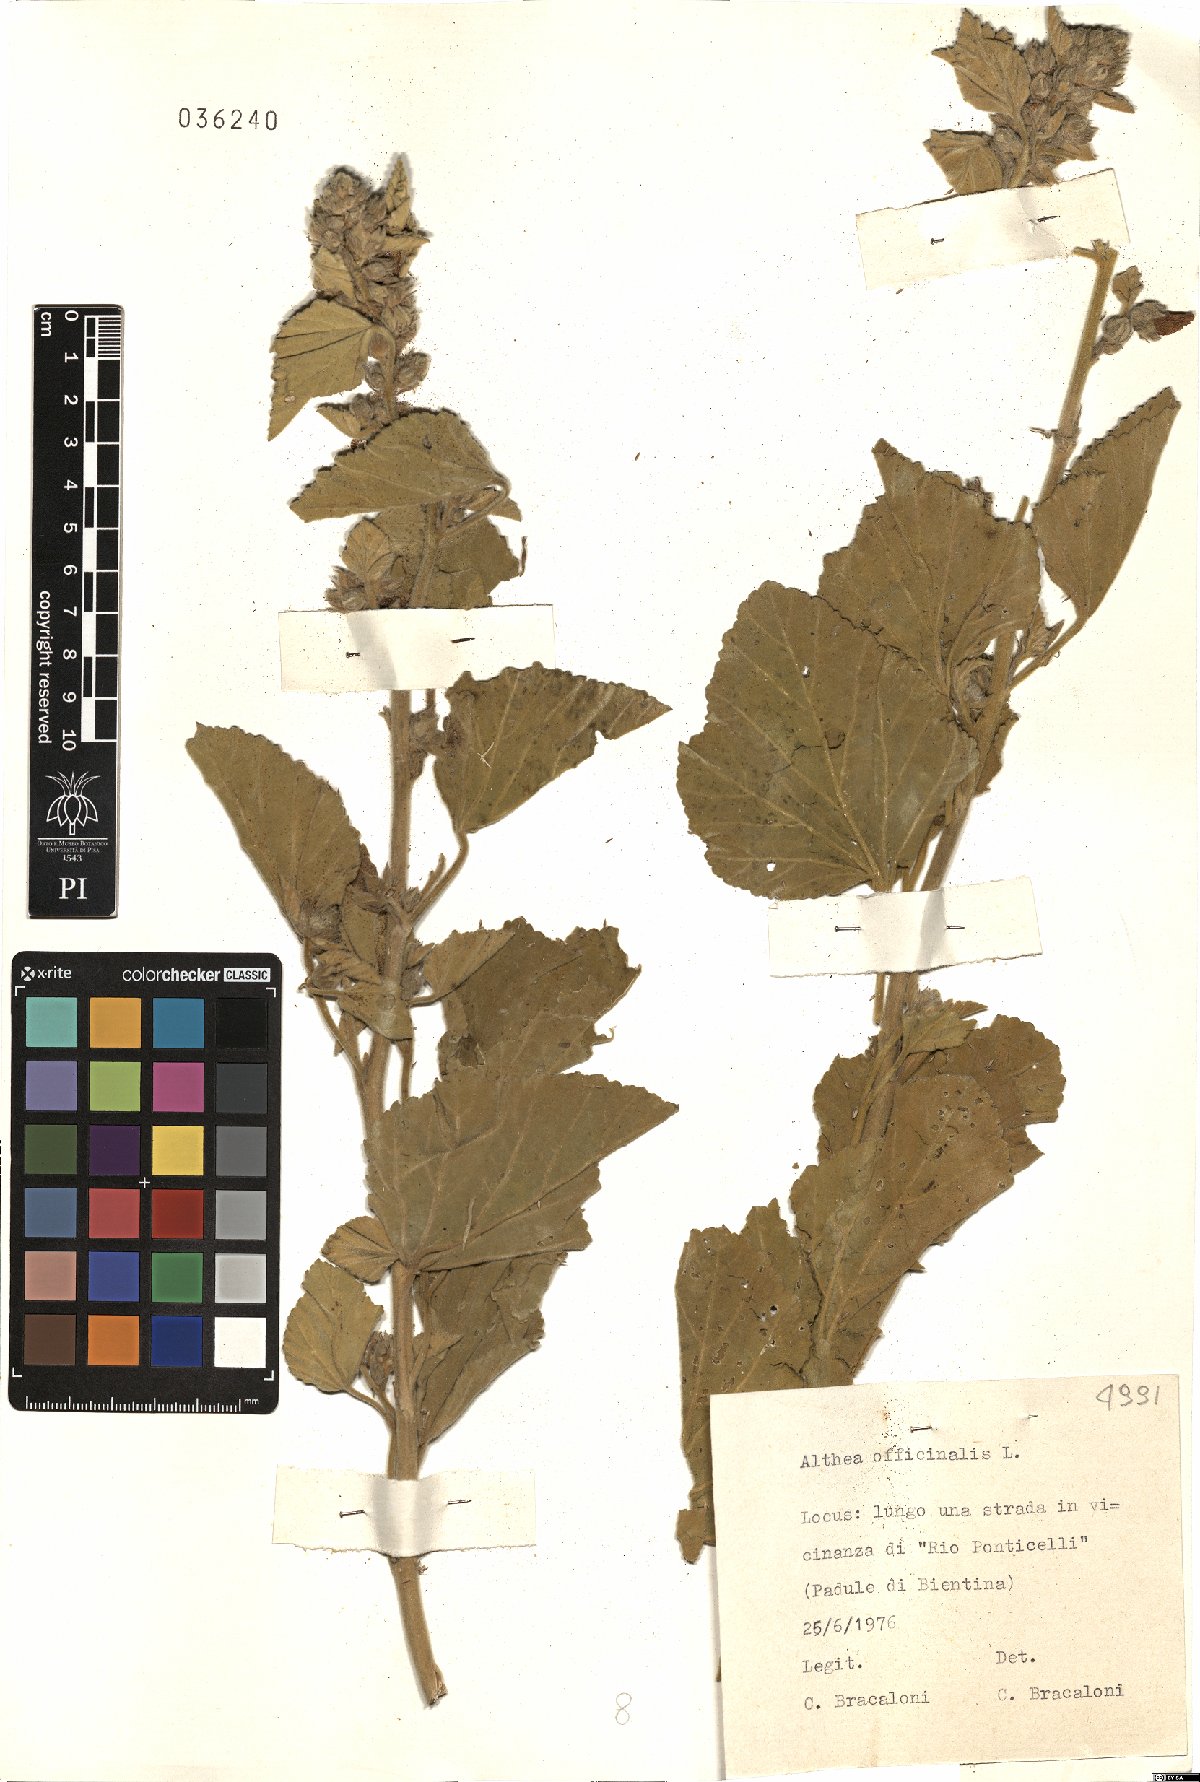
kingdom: Plantae
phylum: Tracheophyta
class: Magnoliopsida
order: Malvales
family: Malvaceae
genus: Althaea
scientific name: Althaea officinalis
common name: Marsh-mallow
